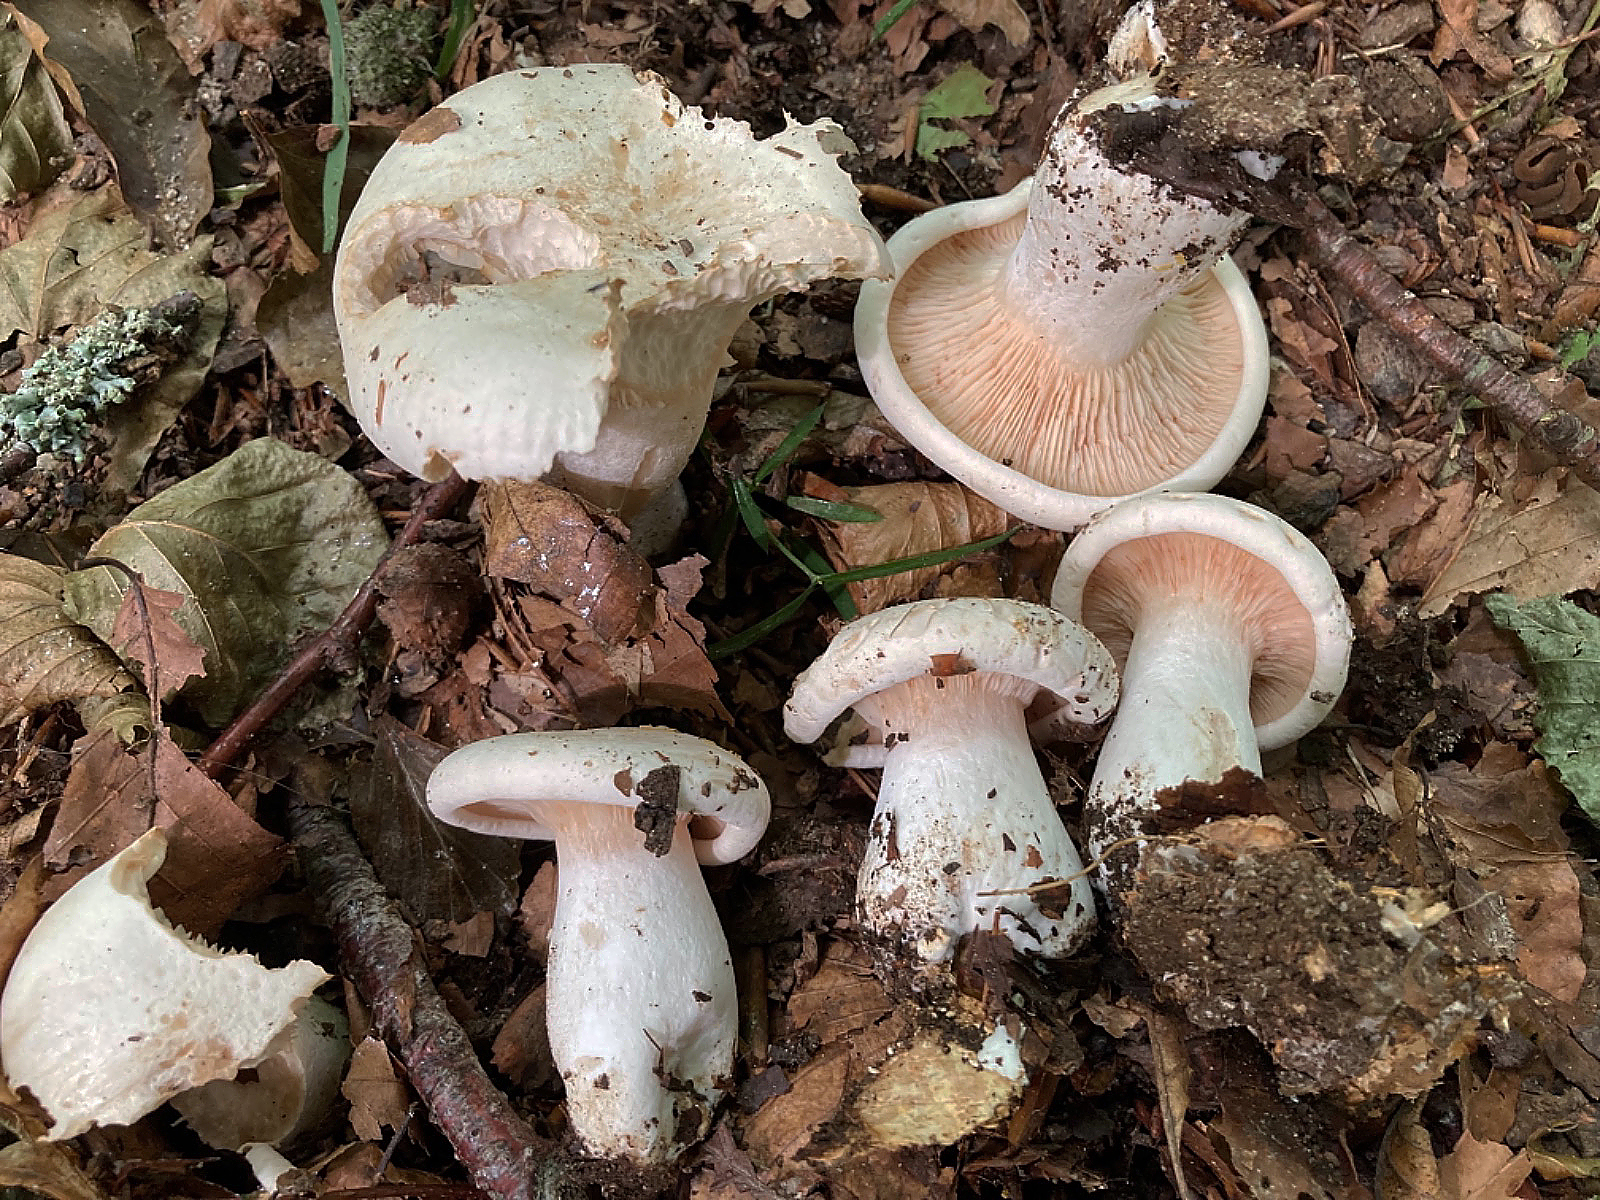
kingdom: Fungi
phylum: Basidiomycota
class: Agaricomycetes
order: Agaricales
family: Tricholomataceae
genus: Aspropaxillus
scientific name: Aspropaxillus giganteus
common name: kæmpe-tragtridderhat
